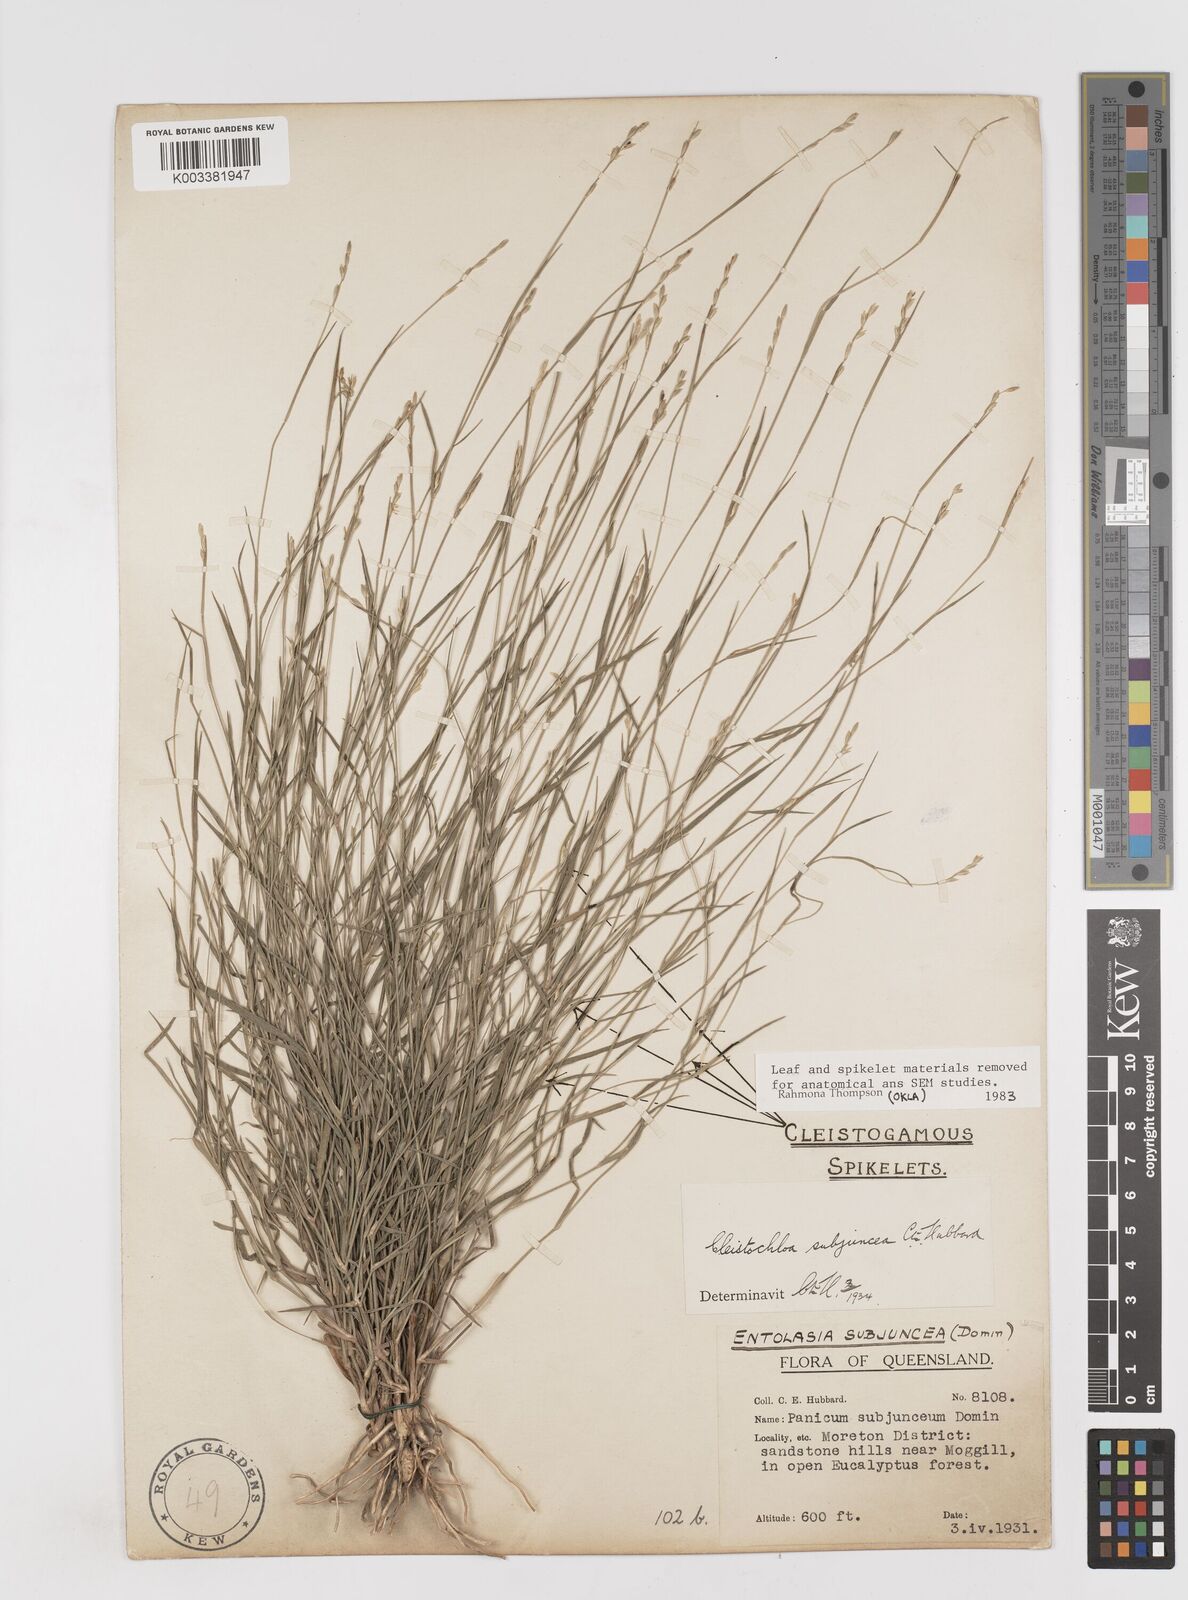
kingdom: Plantae
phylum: Tracheophyta
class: Liliopsida
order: Poales
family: Poaceae
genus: Cleistochloa
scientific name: Cleistochloa subjuncea
